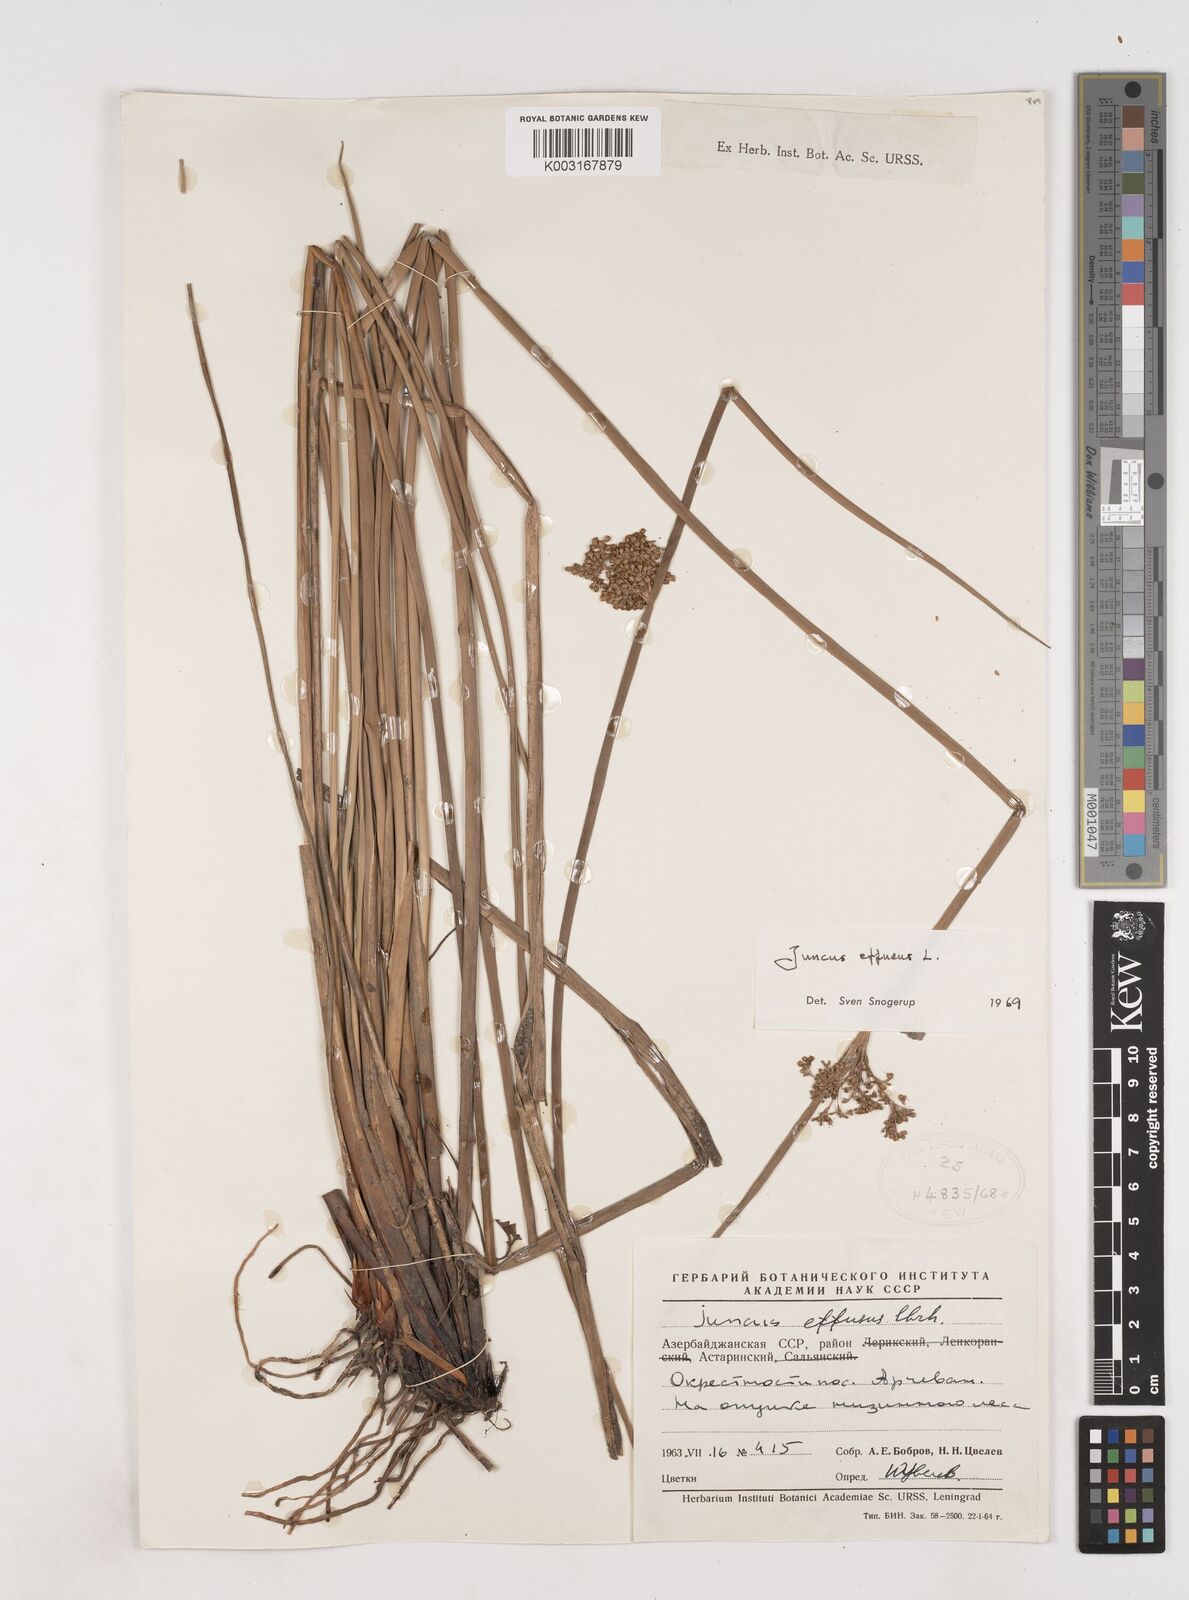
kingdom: Plantae
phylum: Tracheophyta
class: Liliopsida
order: Poales
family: Juncaceae
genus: Juncus
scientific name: Juncus effusus
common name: Soft rush
